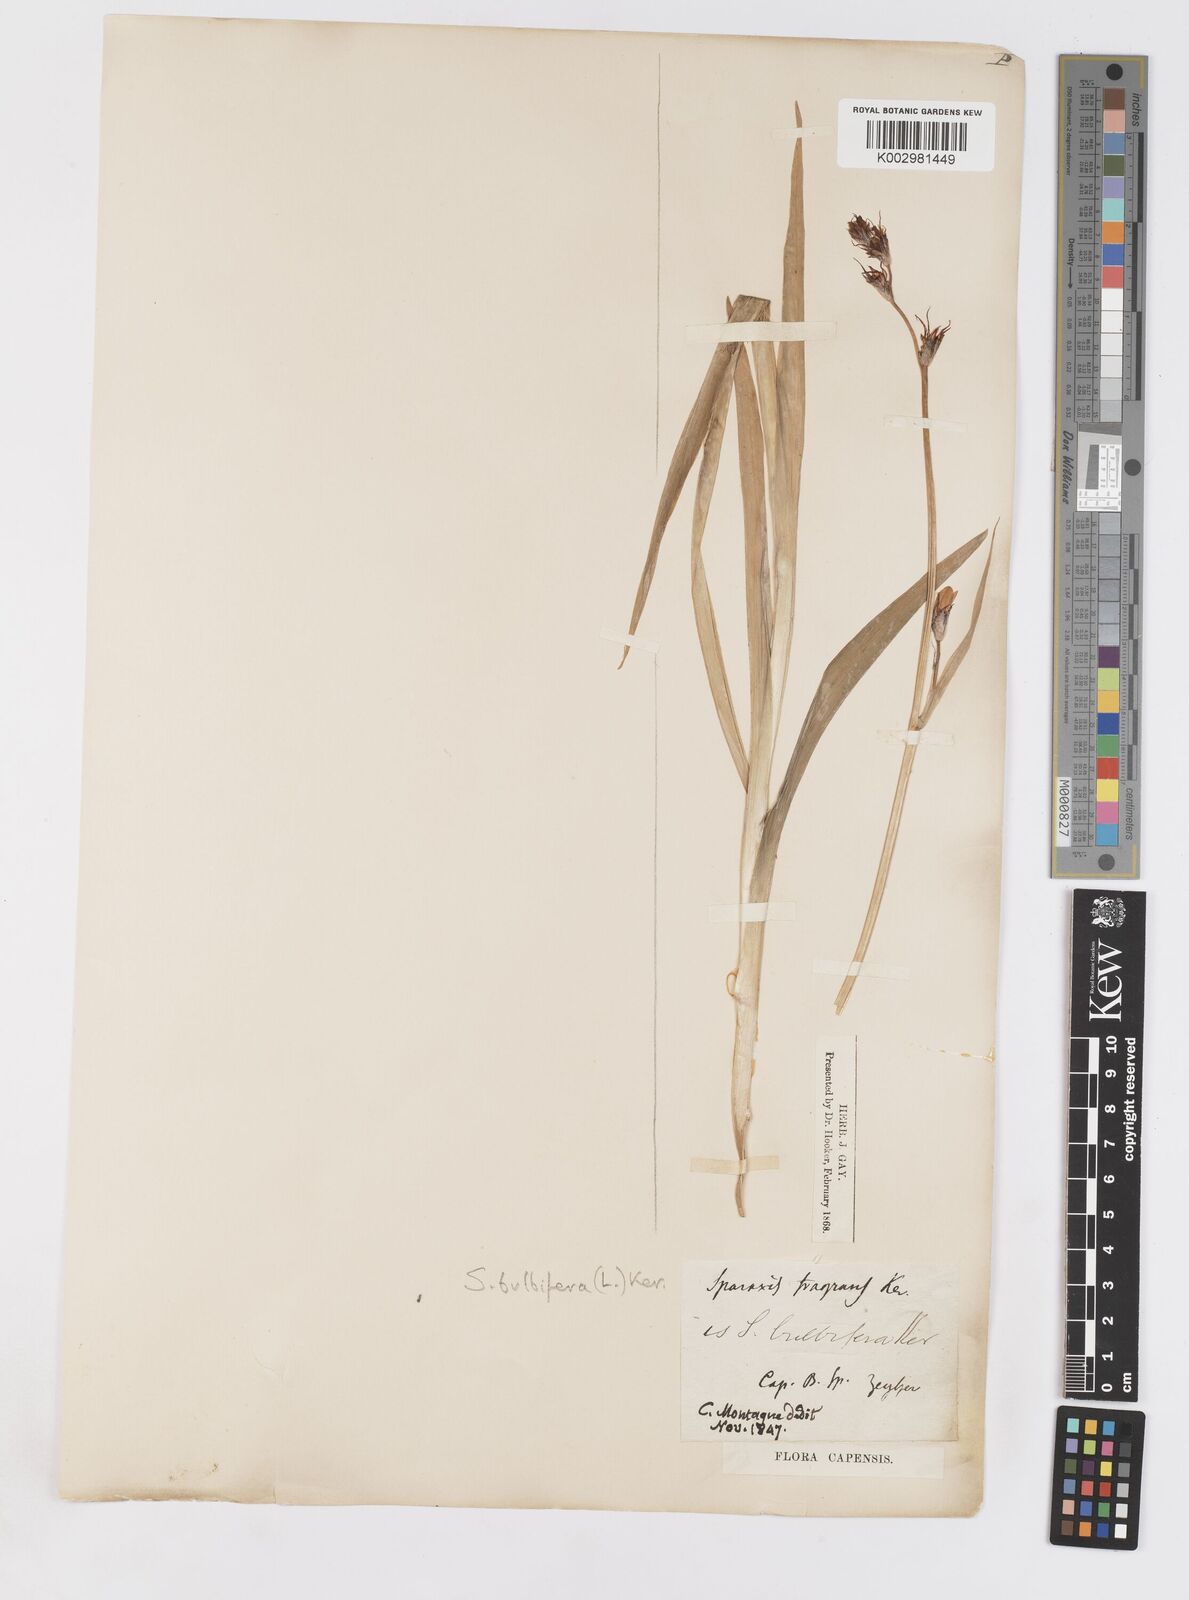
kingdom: Plantae
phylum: Tracheophyta
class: Liliopsida
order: Asparagales
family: Iridaceae
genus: Sparaxis
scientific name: Sparaxis bulbifera
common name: Harlequin-flower
